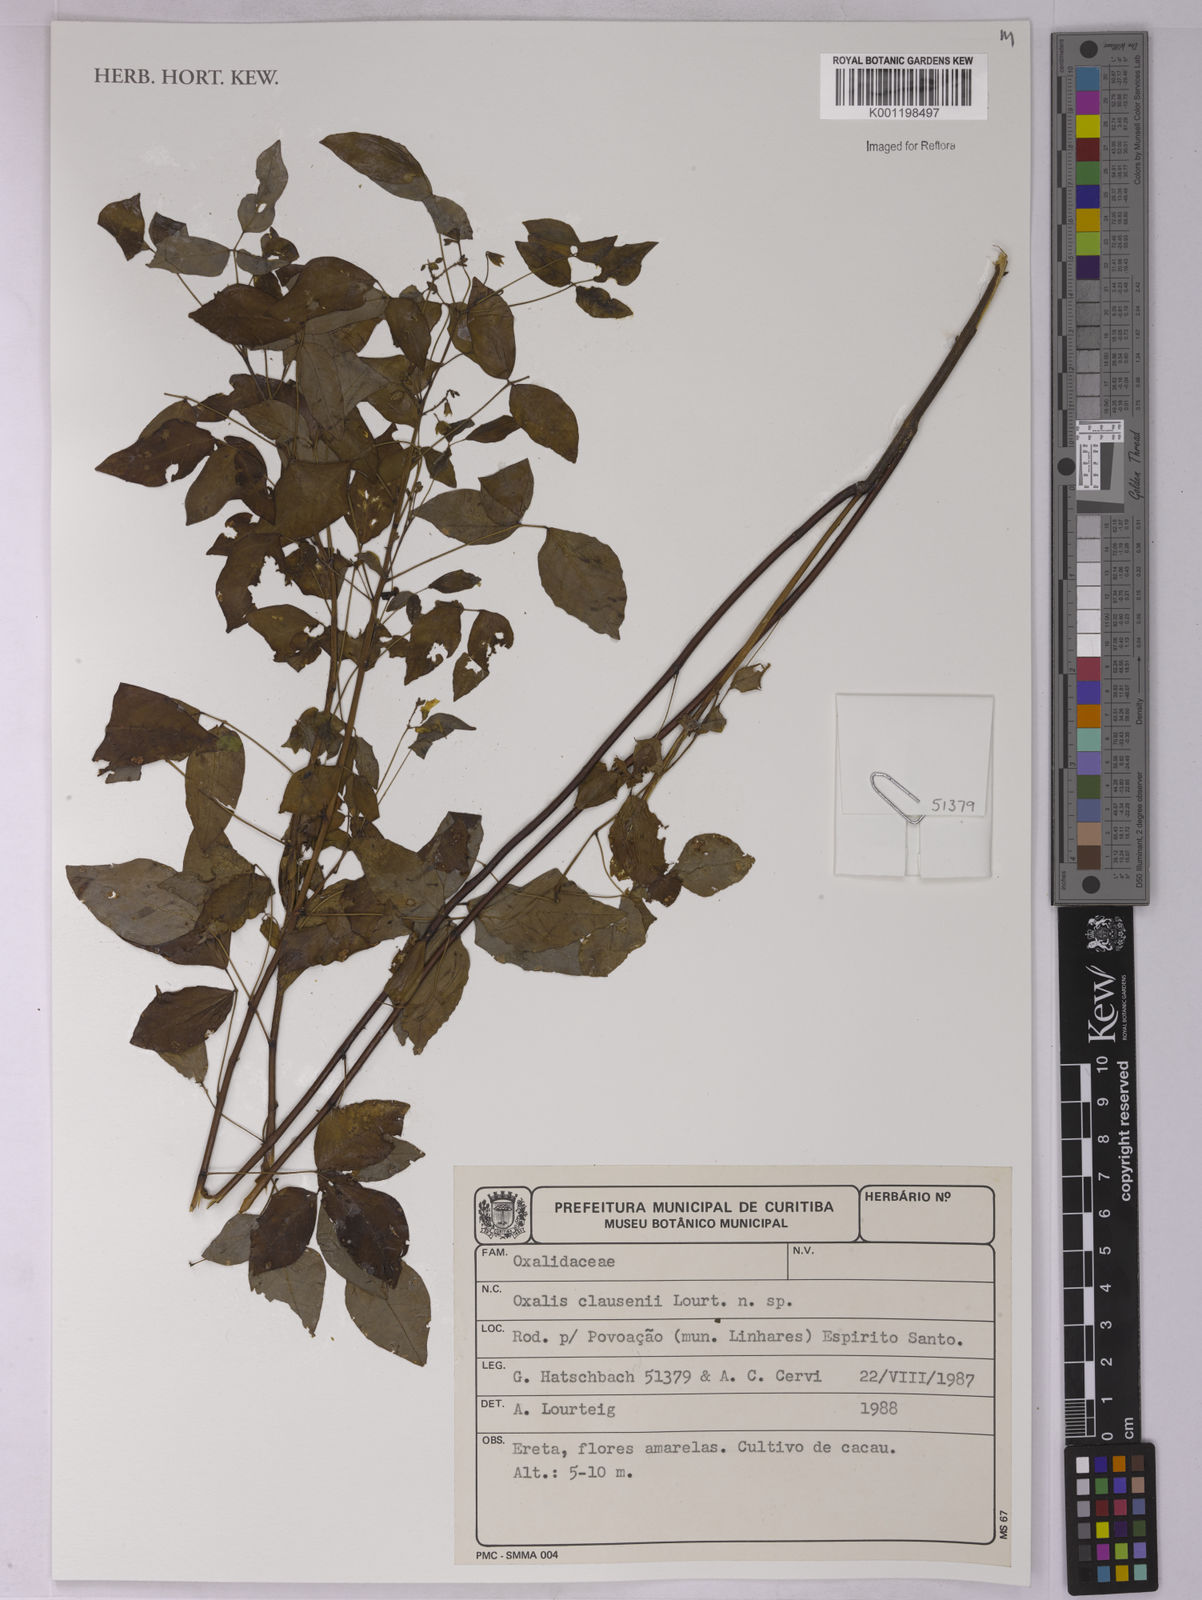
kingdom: Plantae
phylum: Tracheophyta
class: Magnoliopsida
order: Oxalidales
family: Oxalidaceae
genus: Oxalis
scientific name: Oxalis clausenii
